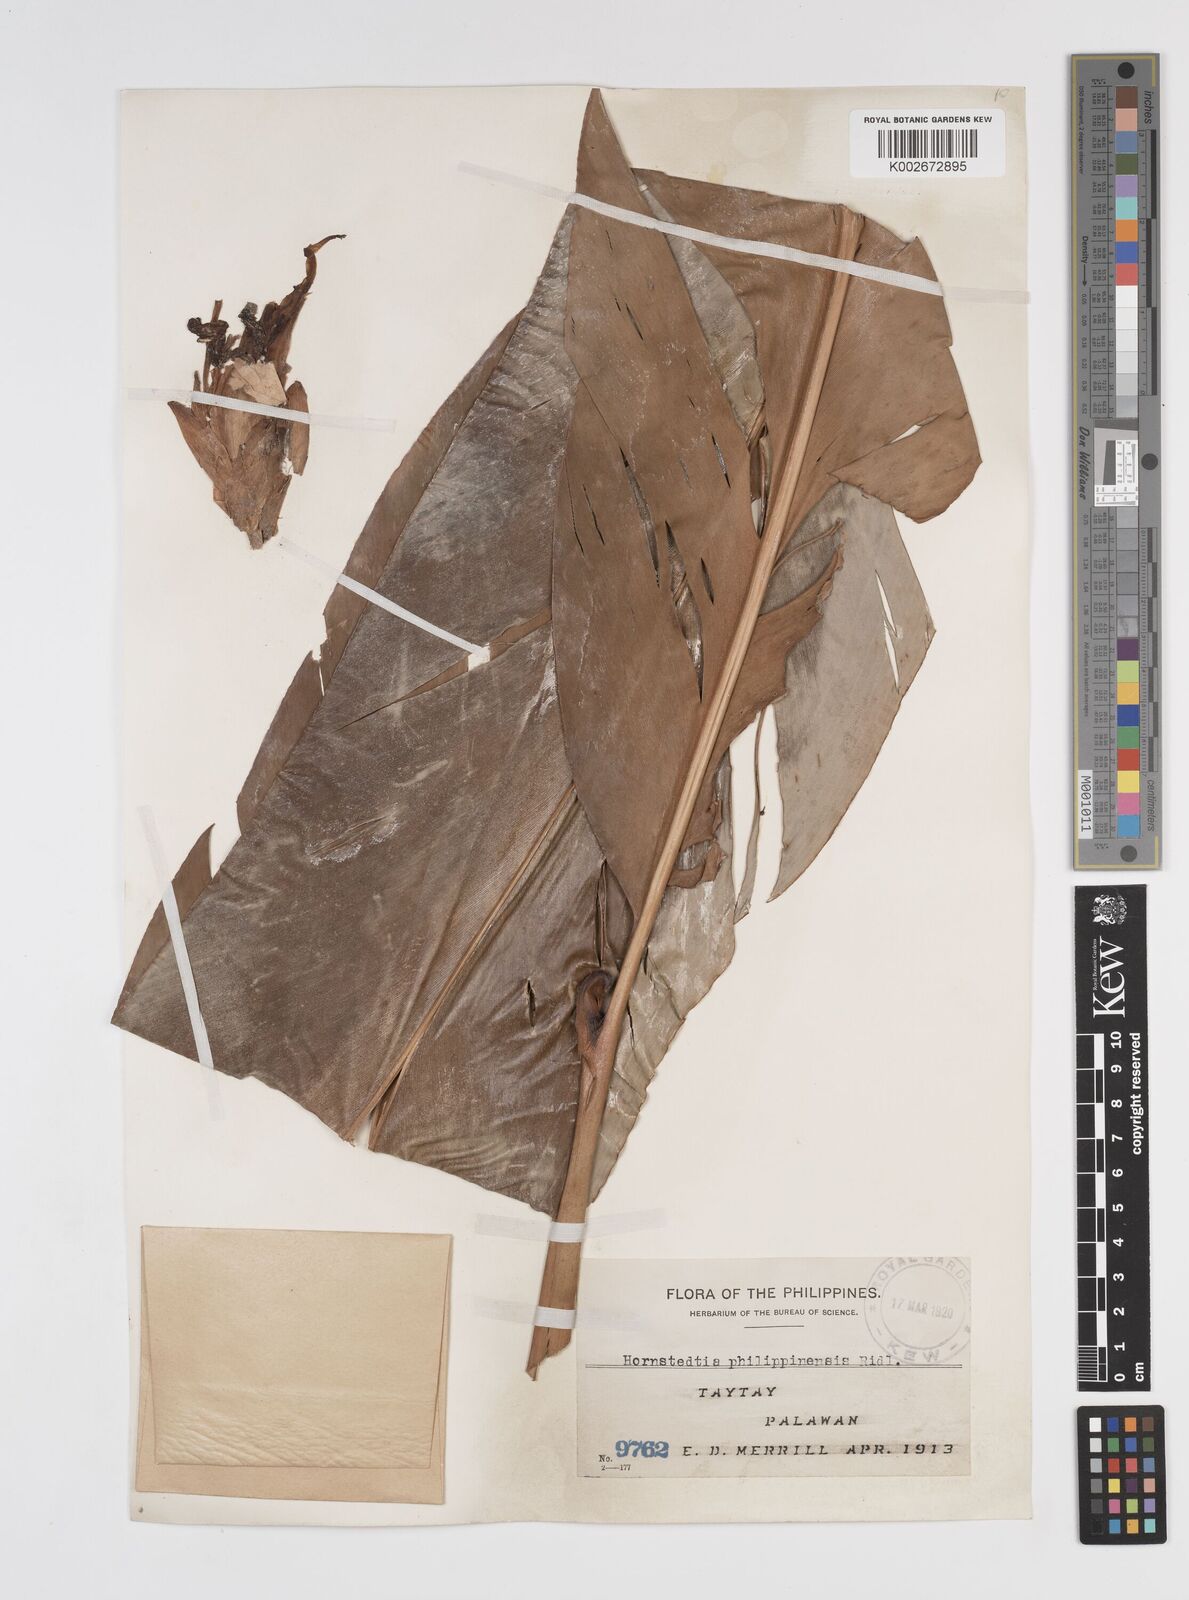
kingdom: Plantae
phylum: Tracheophyta
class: Liliopsida
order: Zingiberales
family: Zingiberaceae
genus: Etlingera
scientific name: Etlingera philippinensis
